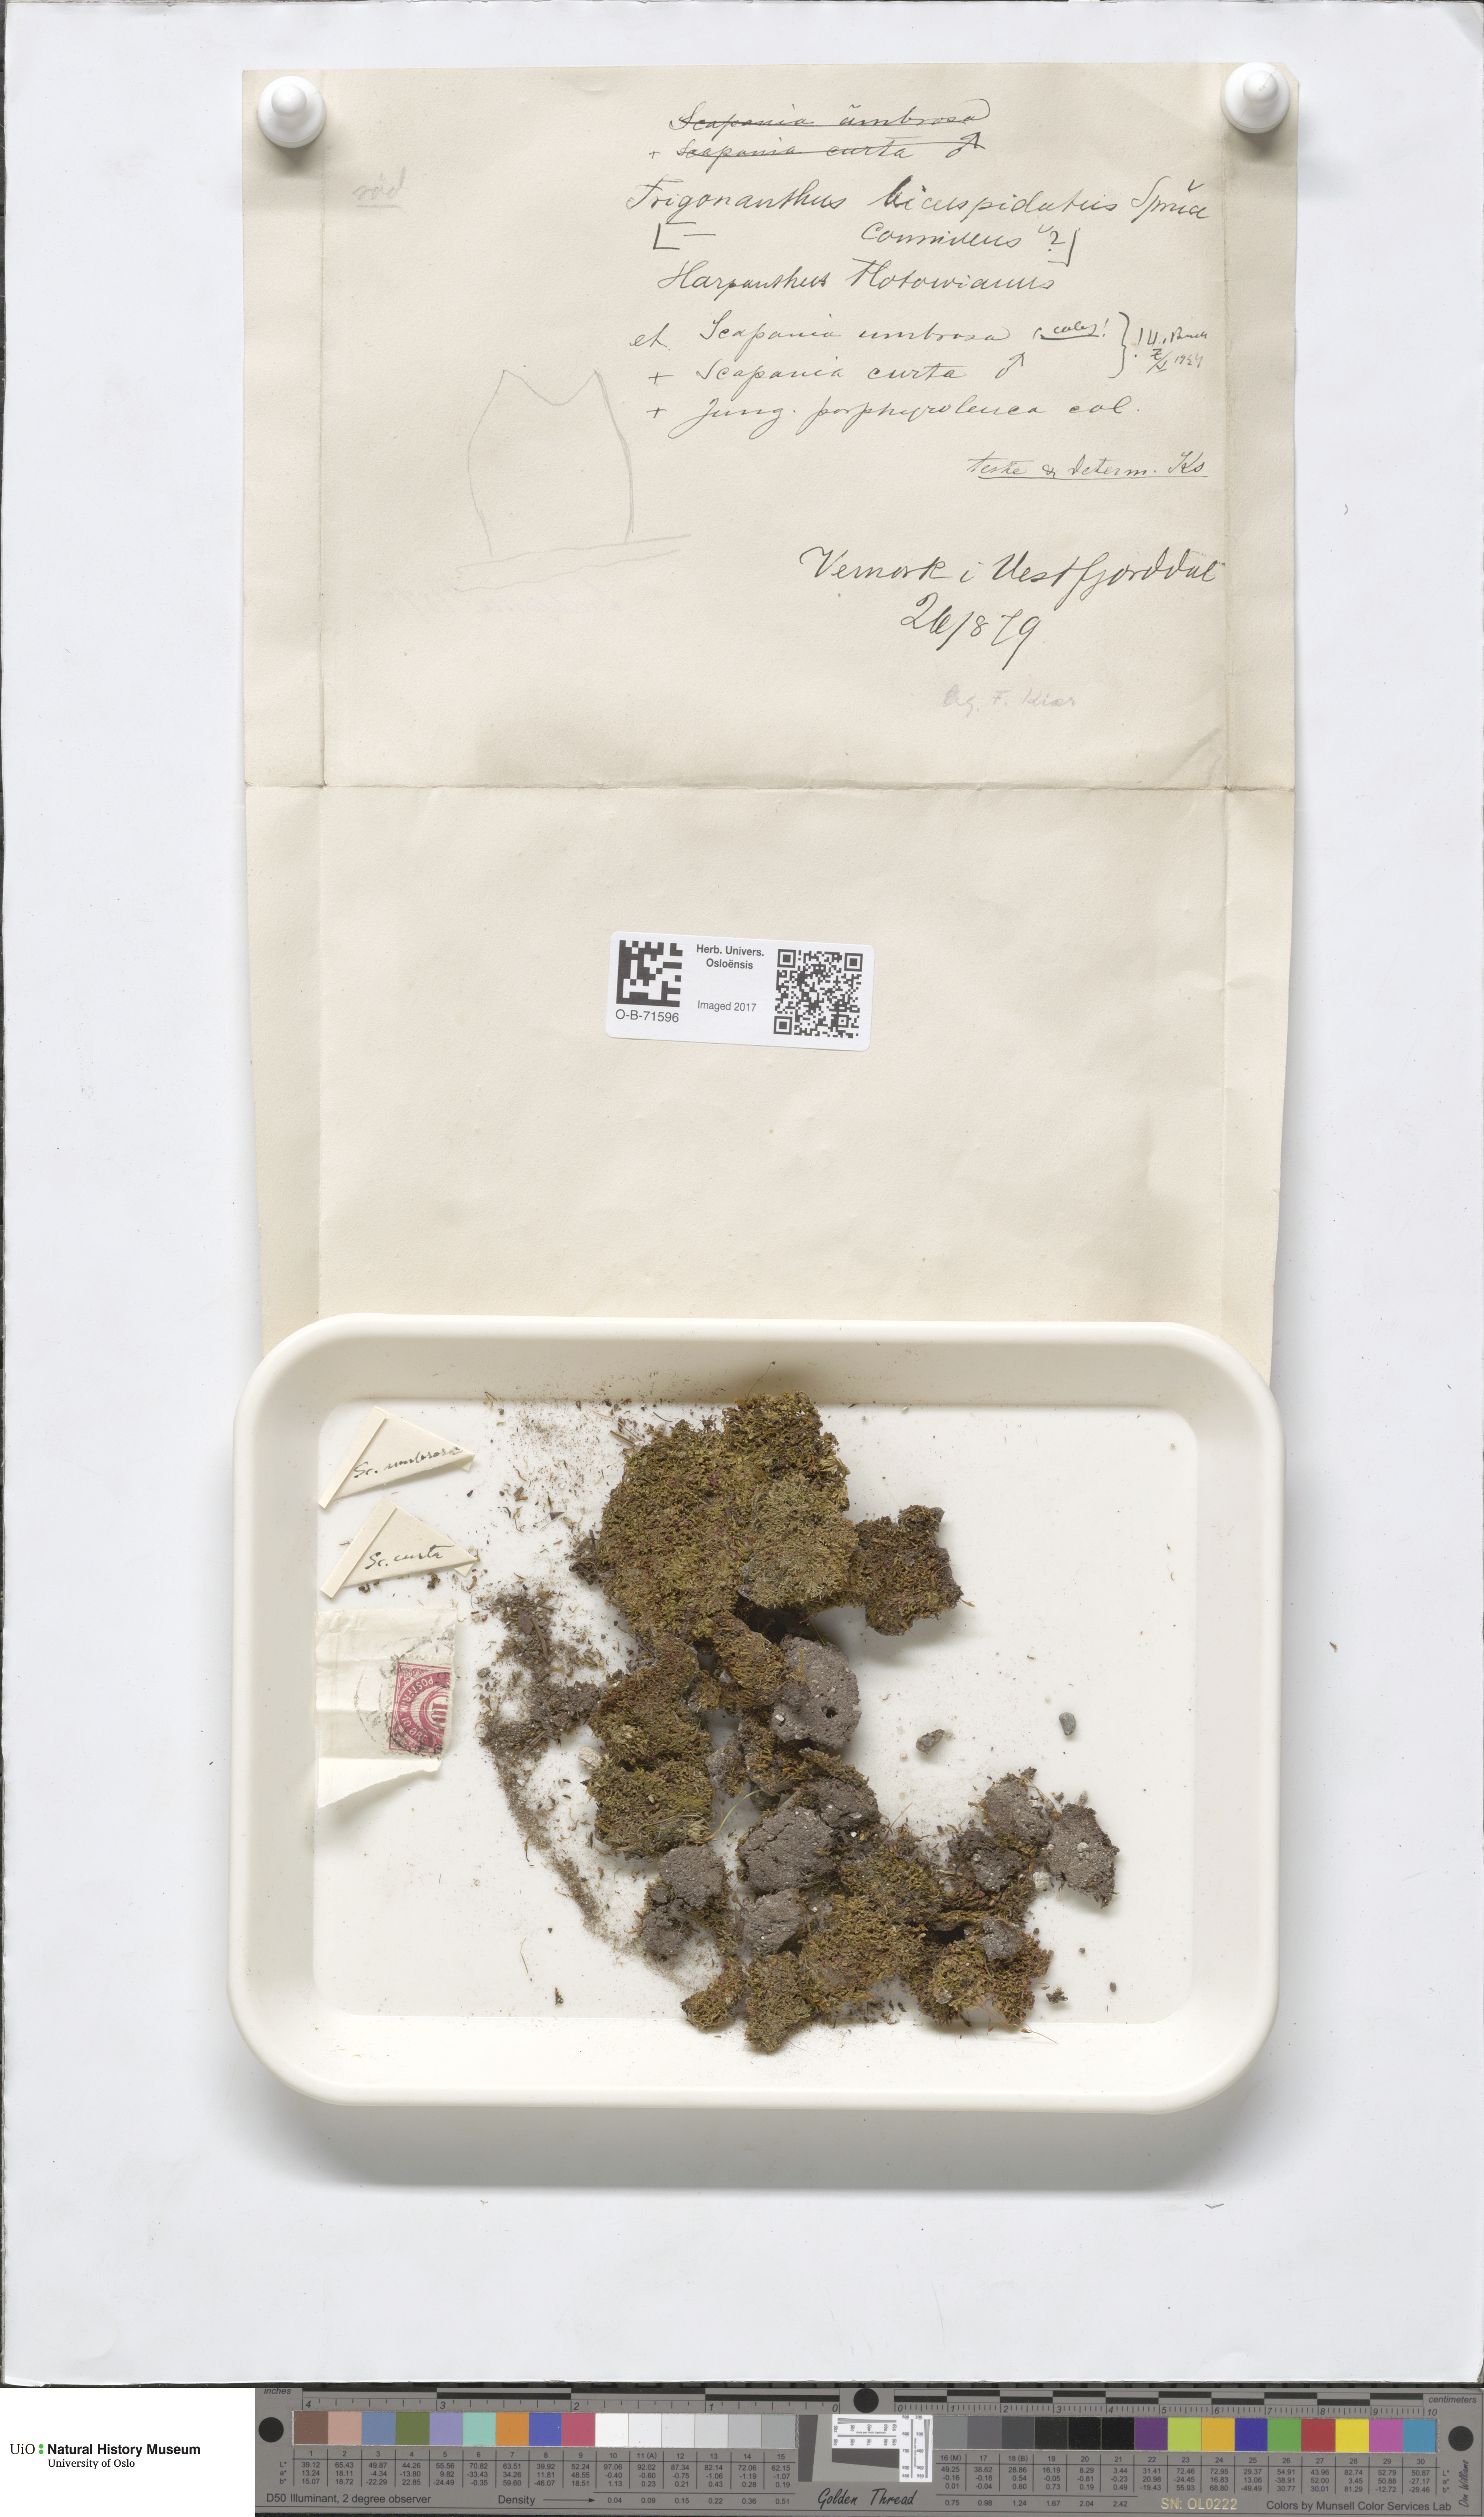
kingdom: Plantae
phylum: Marchantiophyta
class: Jungermanniopsida
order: Jungermanniales
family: Cephaloziaceae
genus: Cephalozia
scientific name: Cephalozia bicuspidata
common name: Two-horned pincerwort
